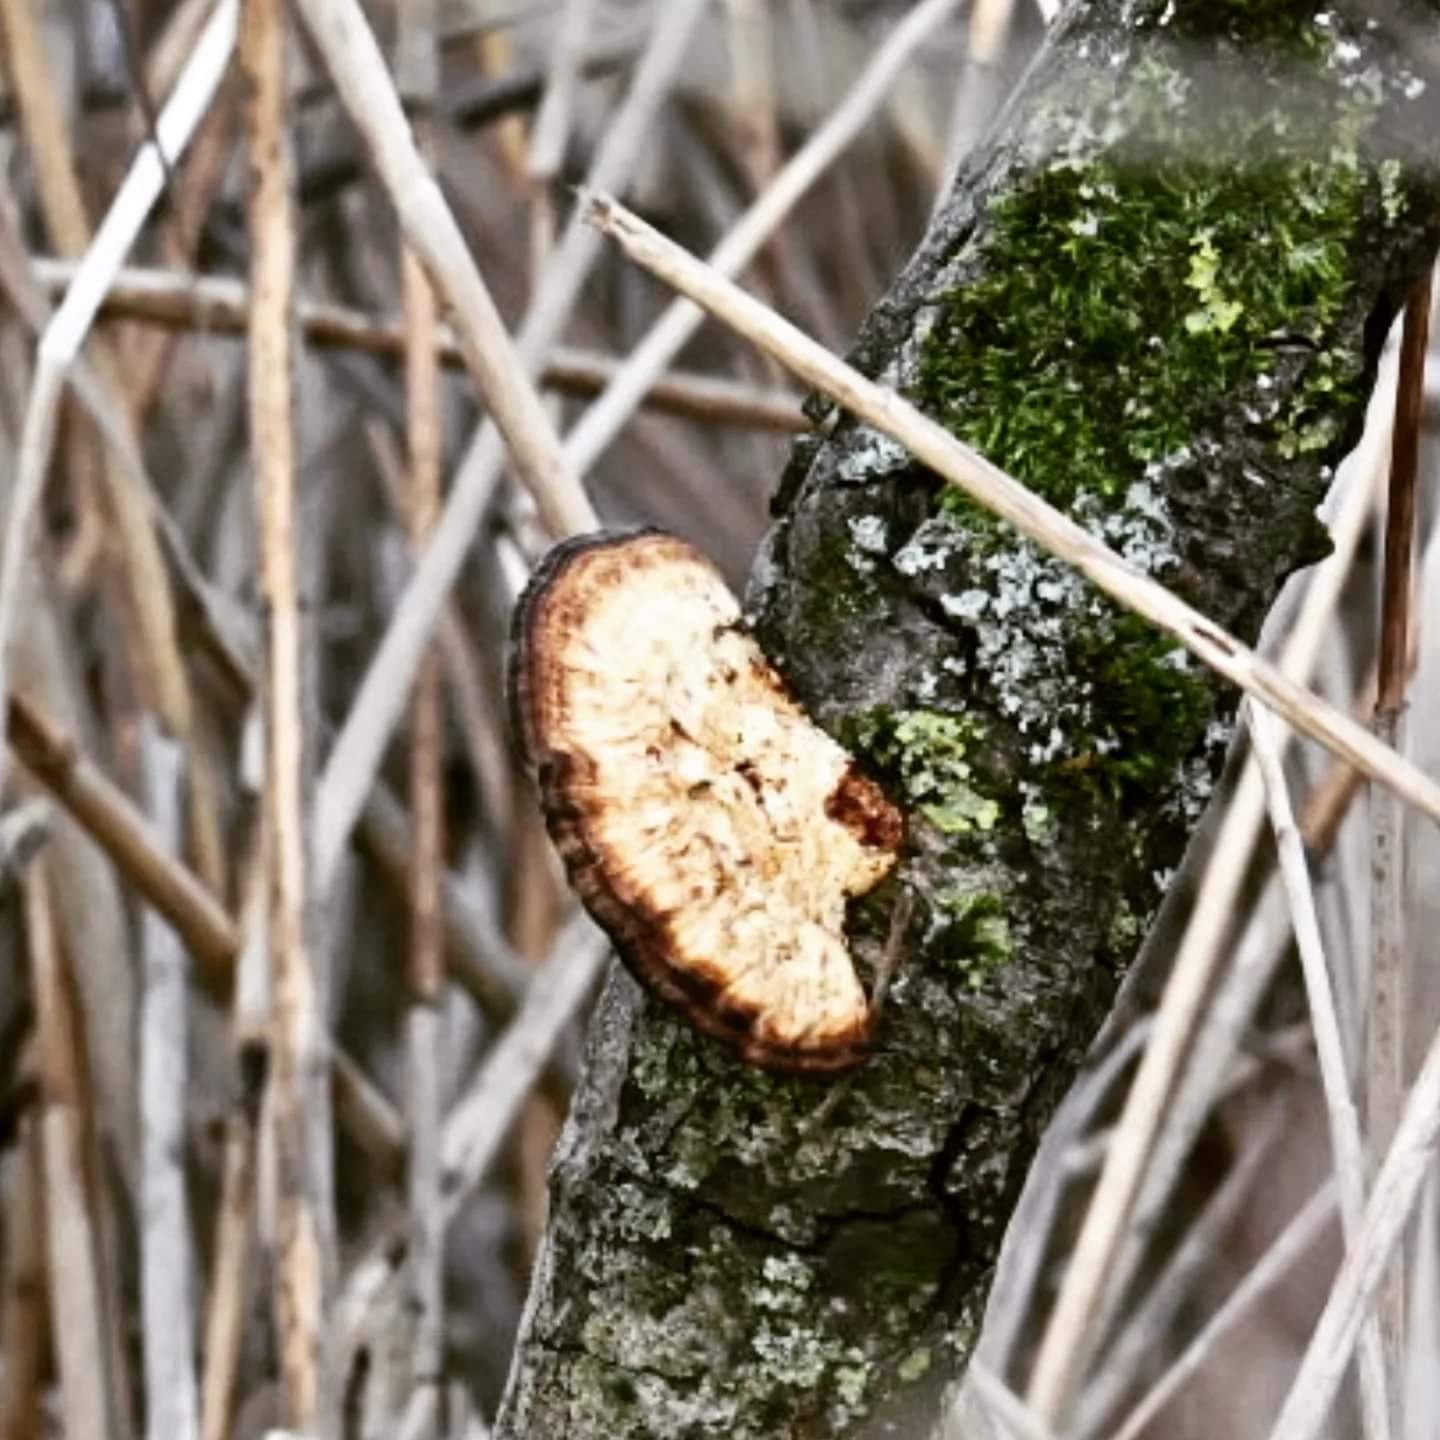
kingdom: Fungi
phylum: Basidiomycota
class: Agaricomycetes
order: Polyporales
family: Polyporaceae
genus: Daedaleopsis
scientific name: Daedaleopsis confragosa
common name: rødmende læderporesvamp
